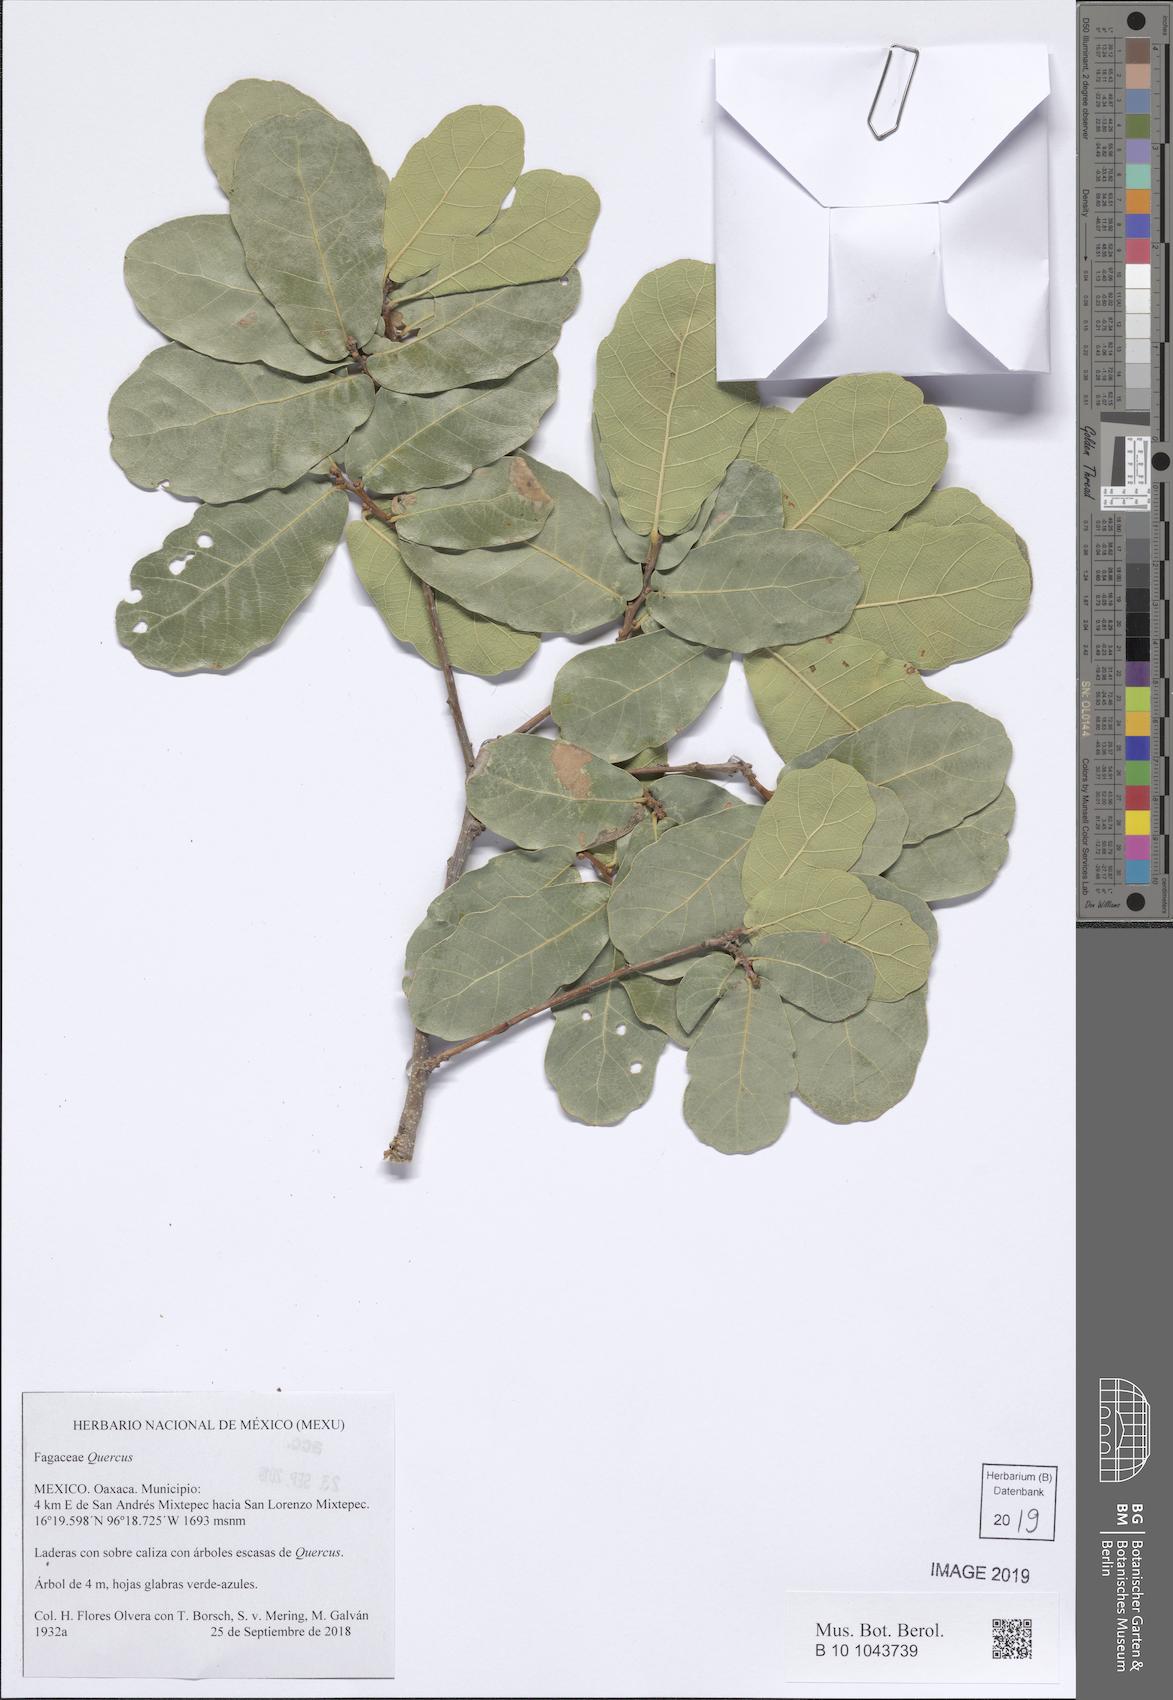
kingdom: Plantae
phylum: Tracheophyta
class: Magnoliopsida
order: Fagales
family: Fagaceae
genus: Quercus
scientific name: Quercus
